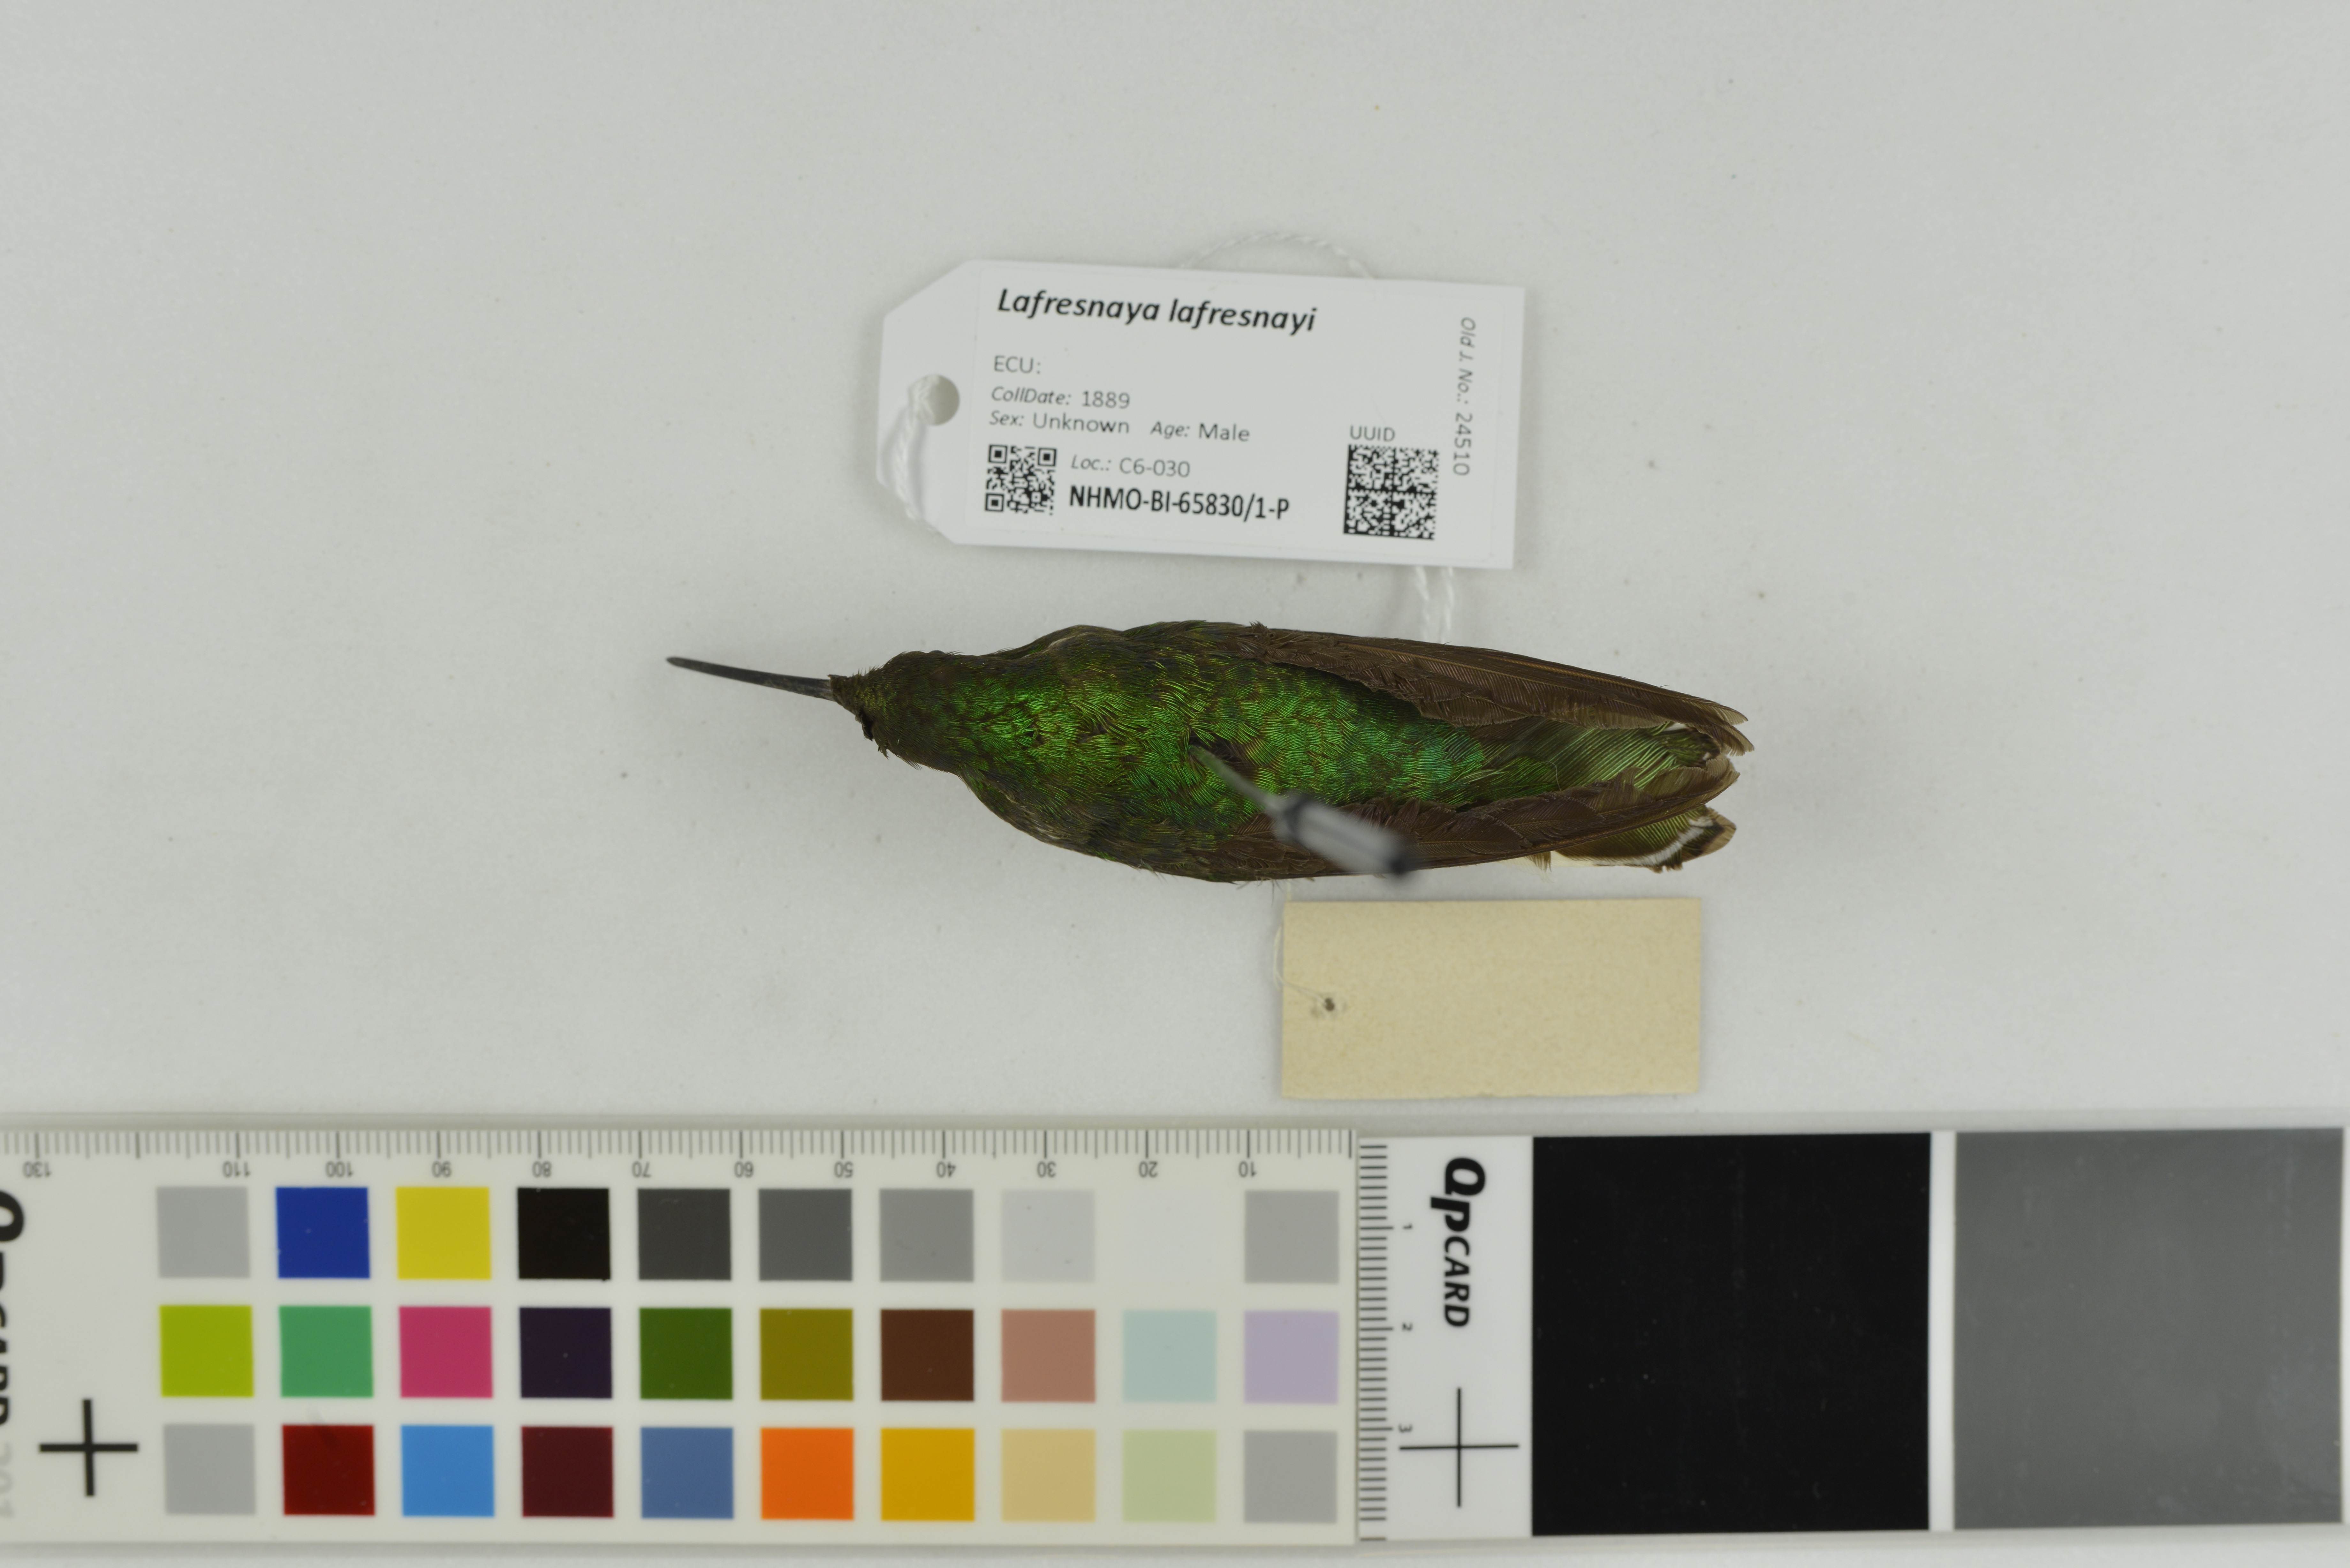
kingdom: Animalia
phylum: Chordata
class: Aves
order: Apodiformes
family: Trochilidae
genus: Lafresnaya
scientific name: Lafresnaya lafresnayi
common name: Mountain velvetbreast
